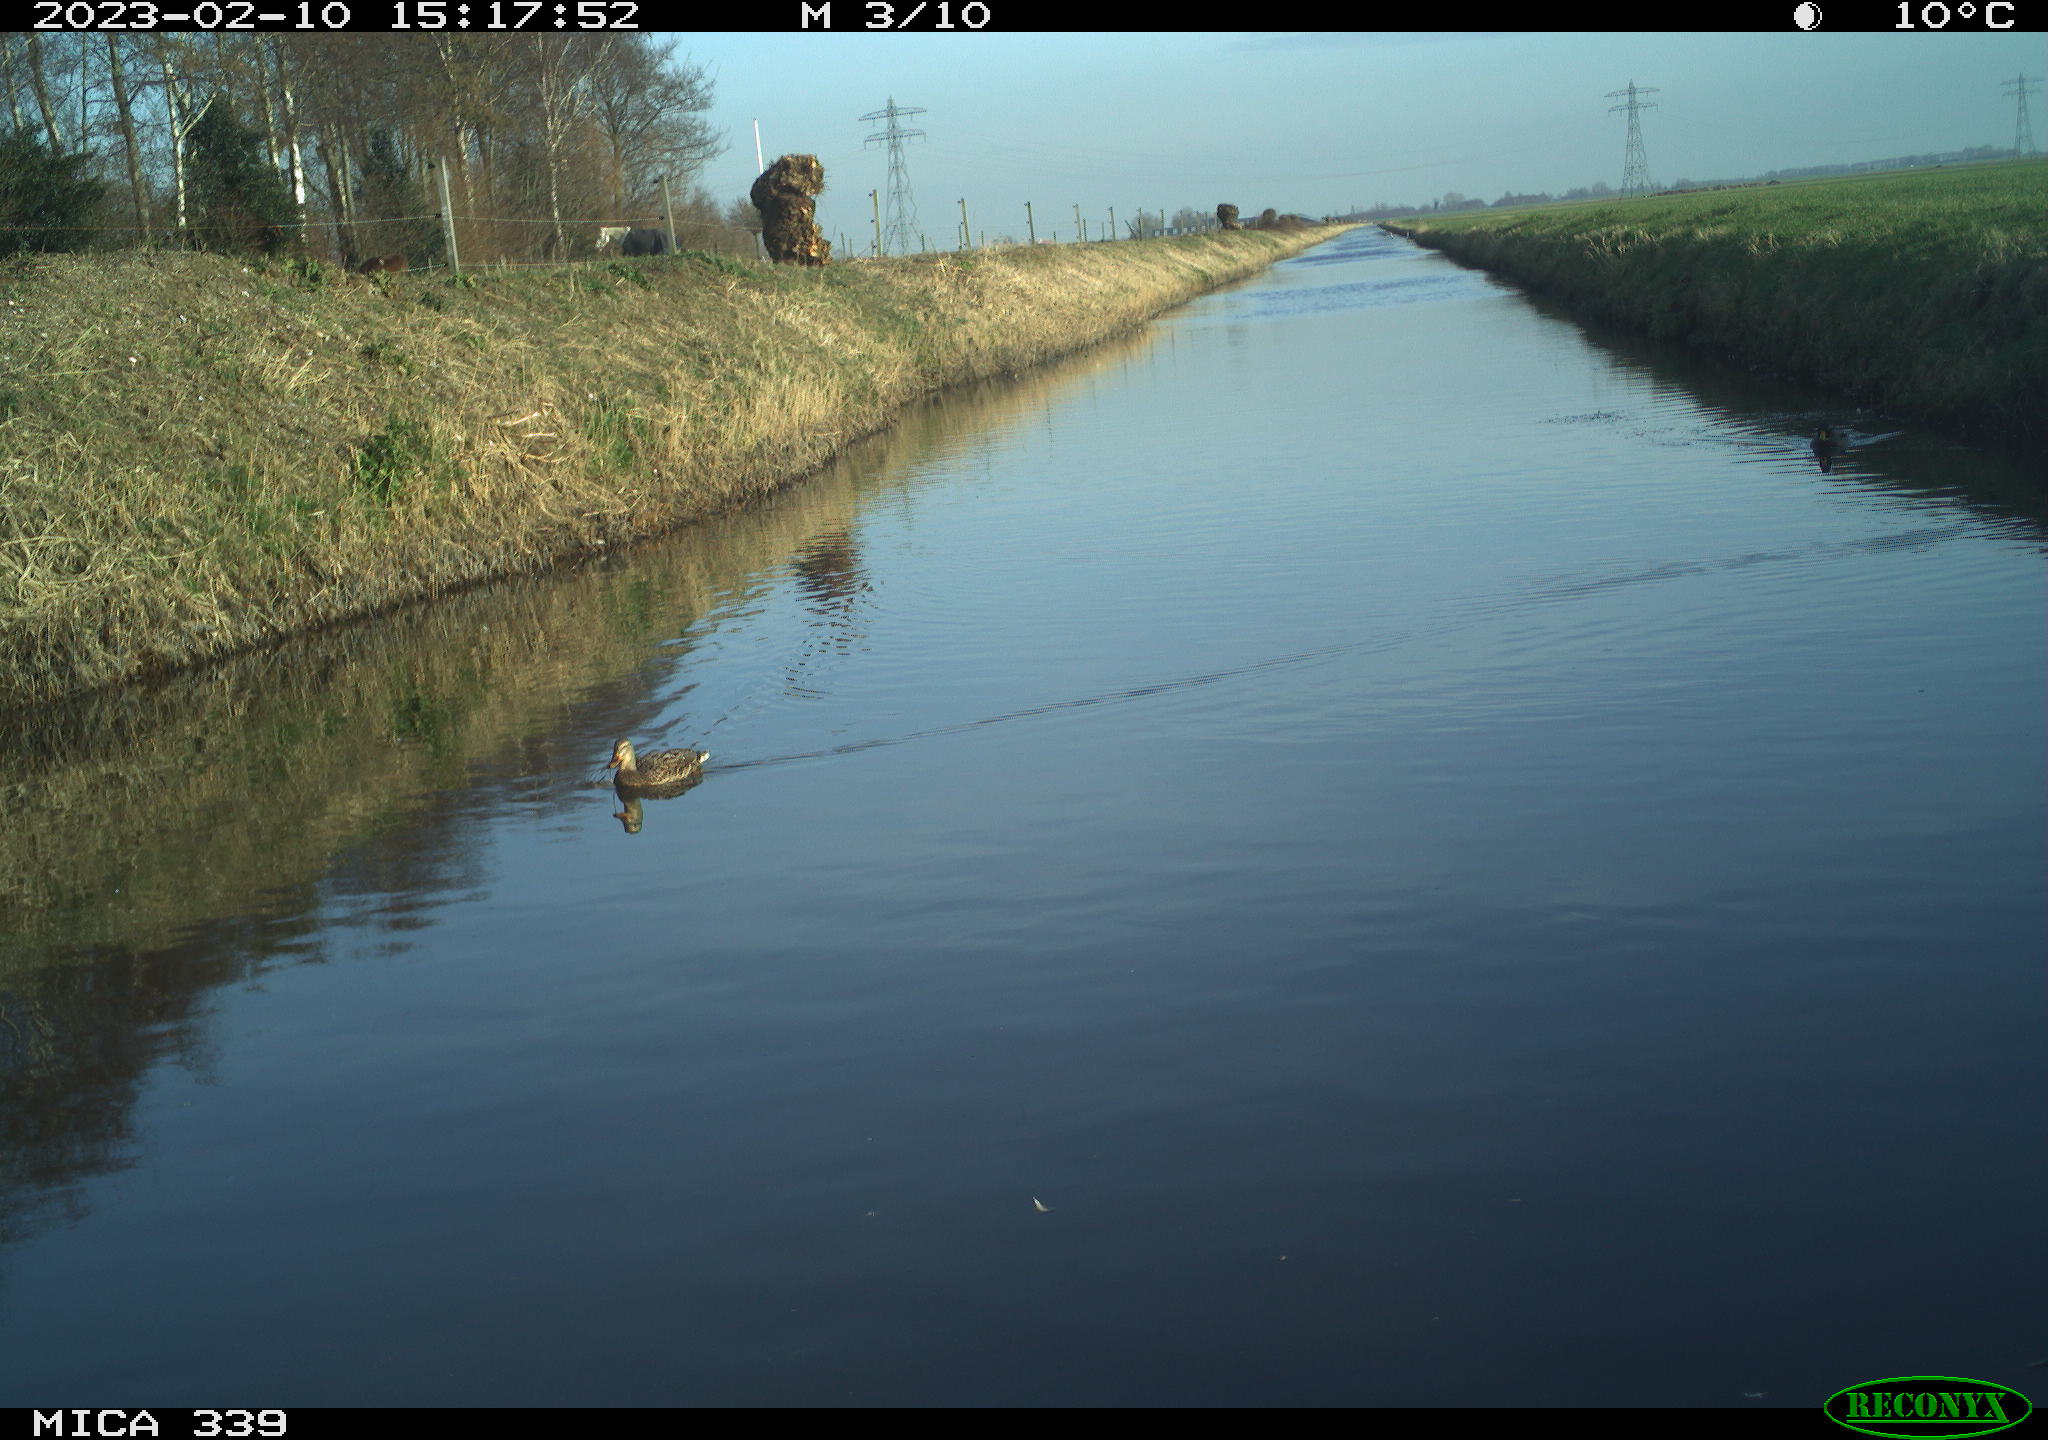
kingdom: Animalia
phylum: Chordata
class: Aves
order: Anseriformes
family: Anatidae
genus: Anas
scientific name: Anas
